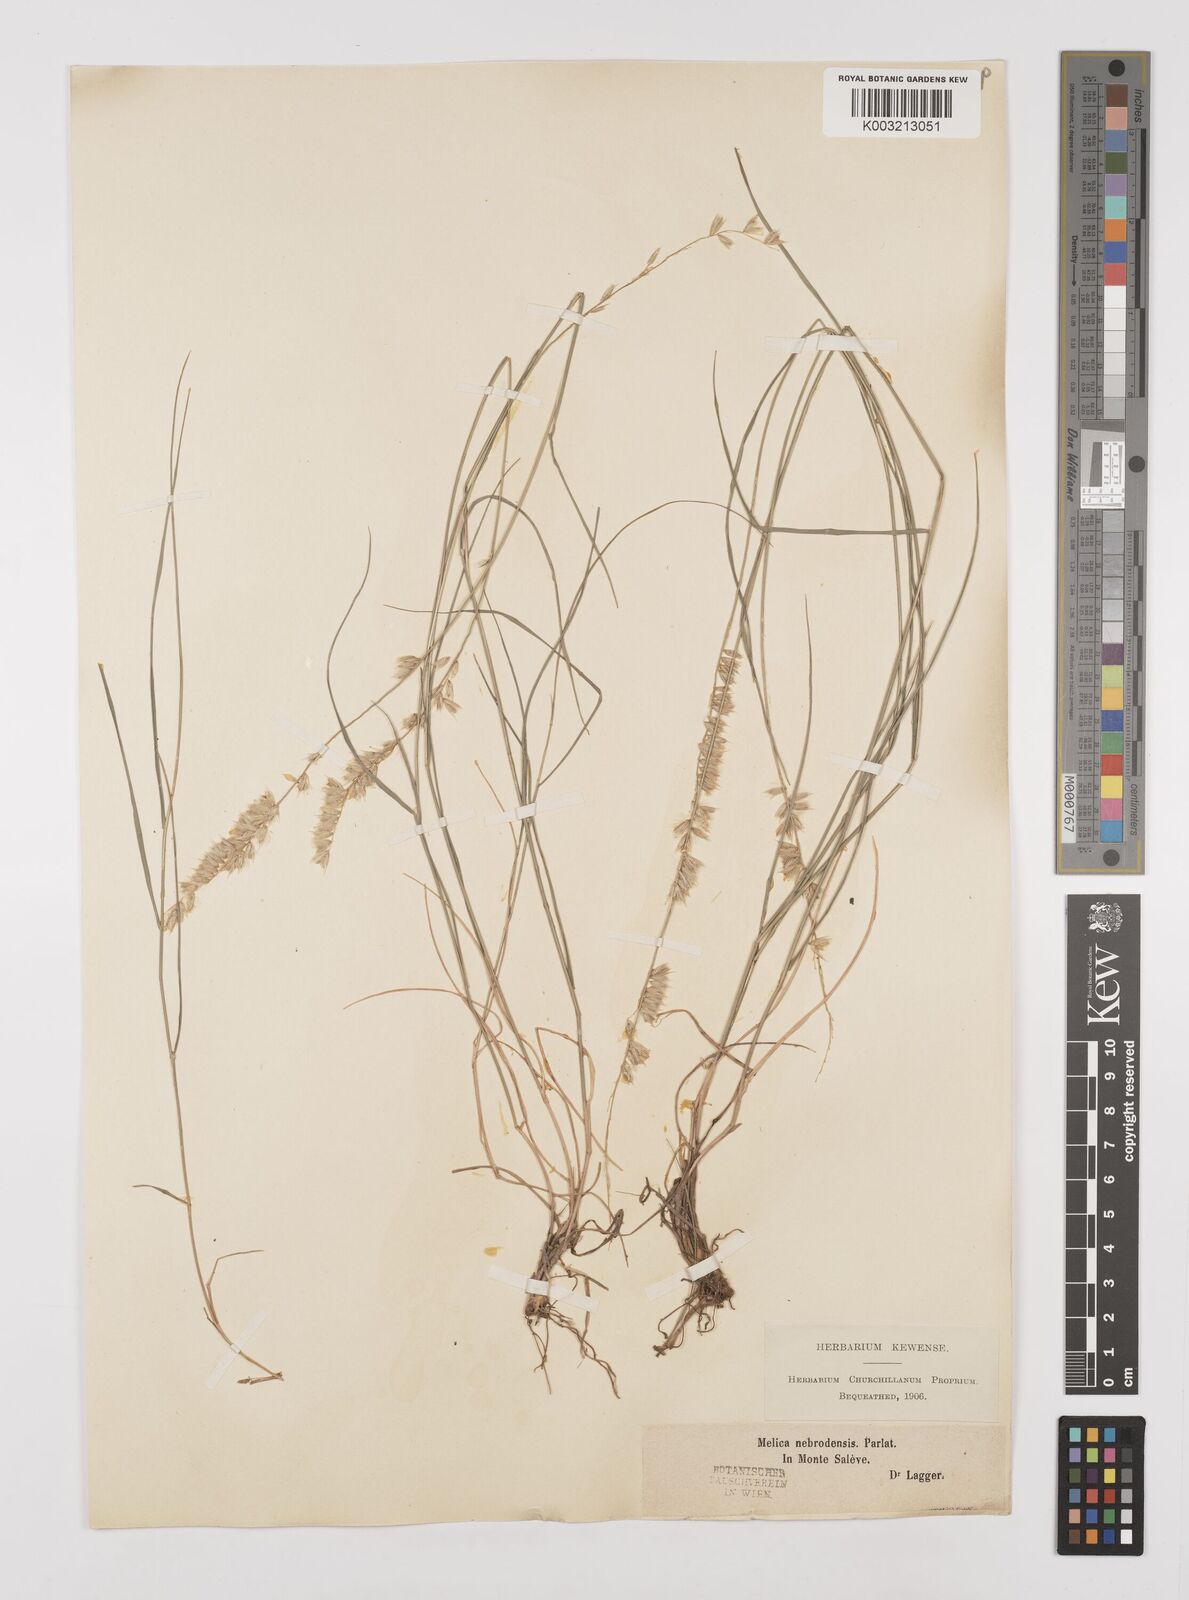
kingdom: Plantae
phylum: Tracheophyta
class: Liliopsida
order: Poales
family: Poaceae
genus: Melica
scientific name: Melica ciliata
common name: Hairy melicgrass
